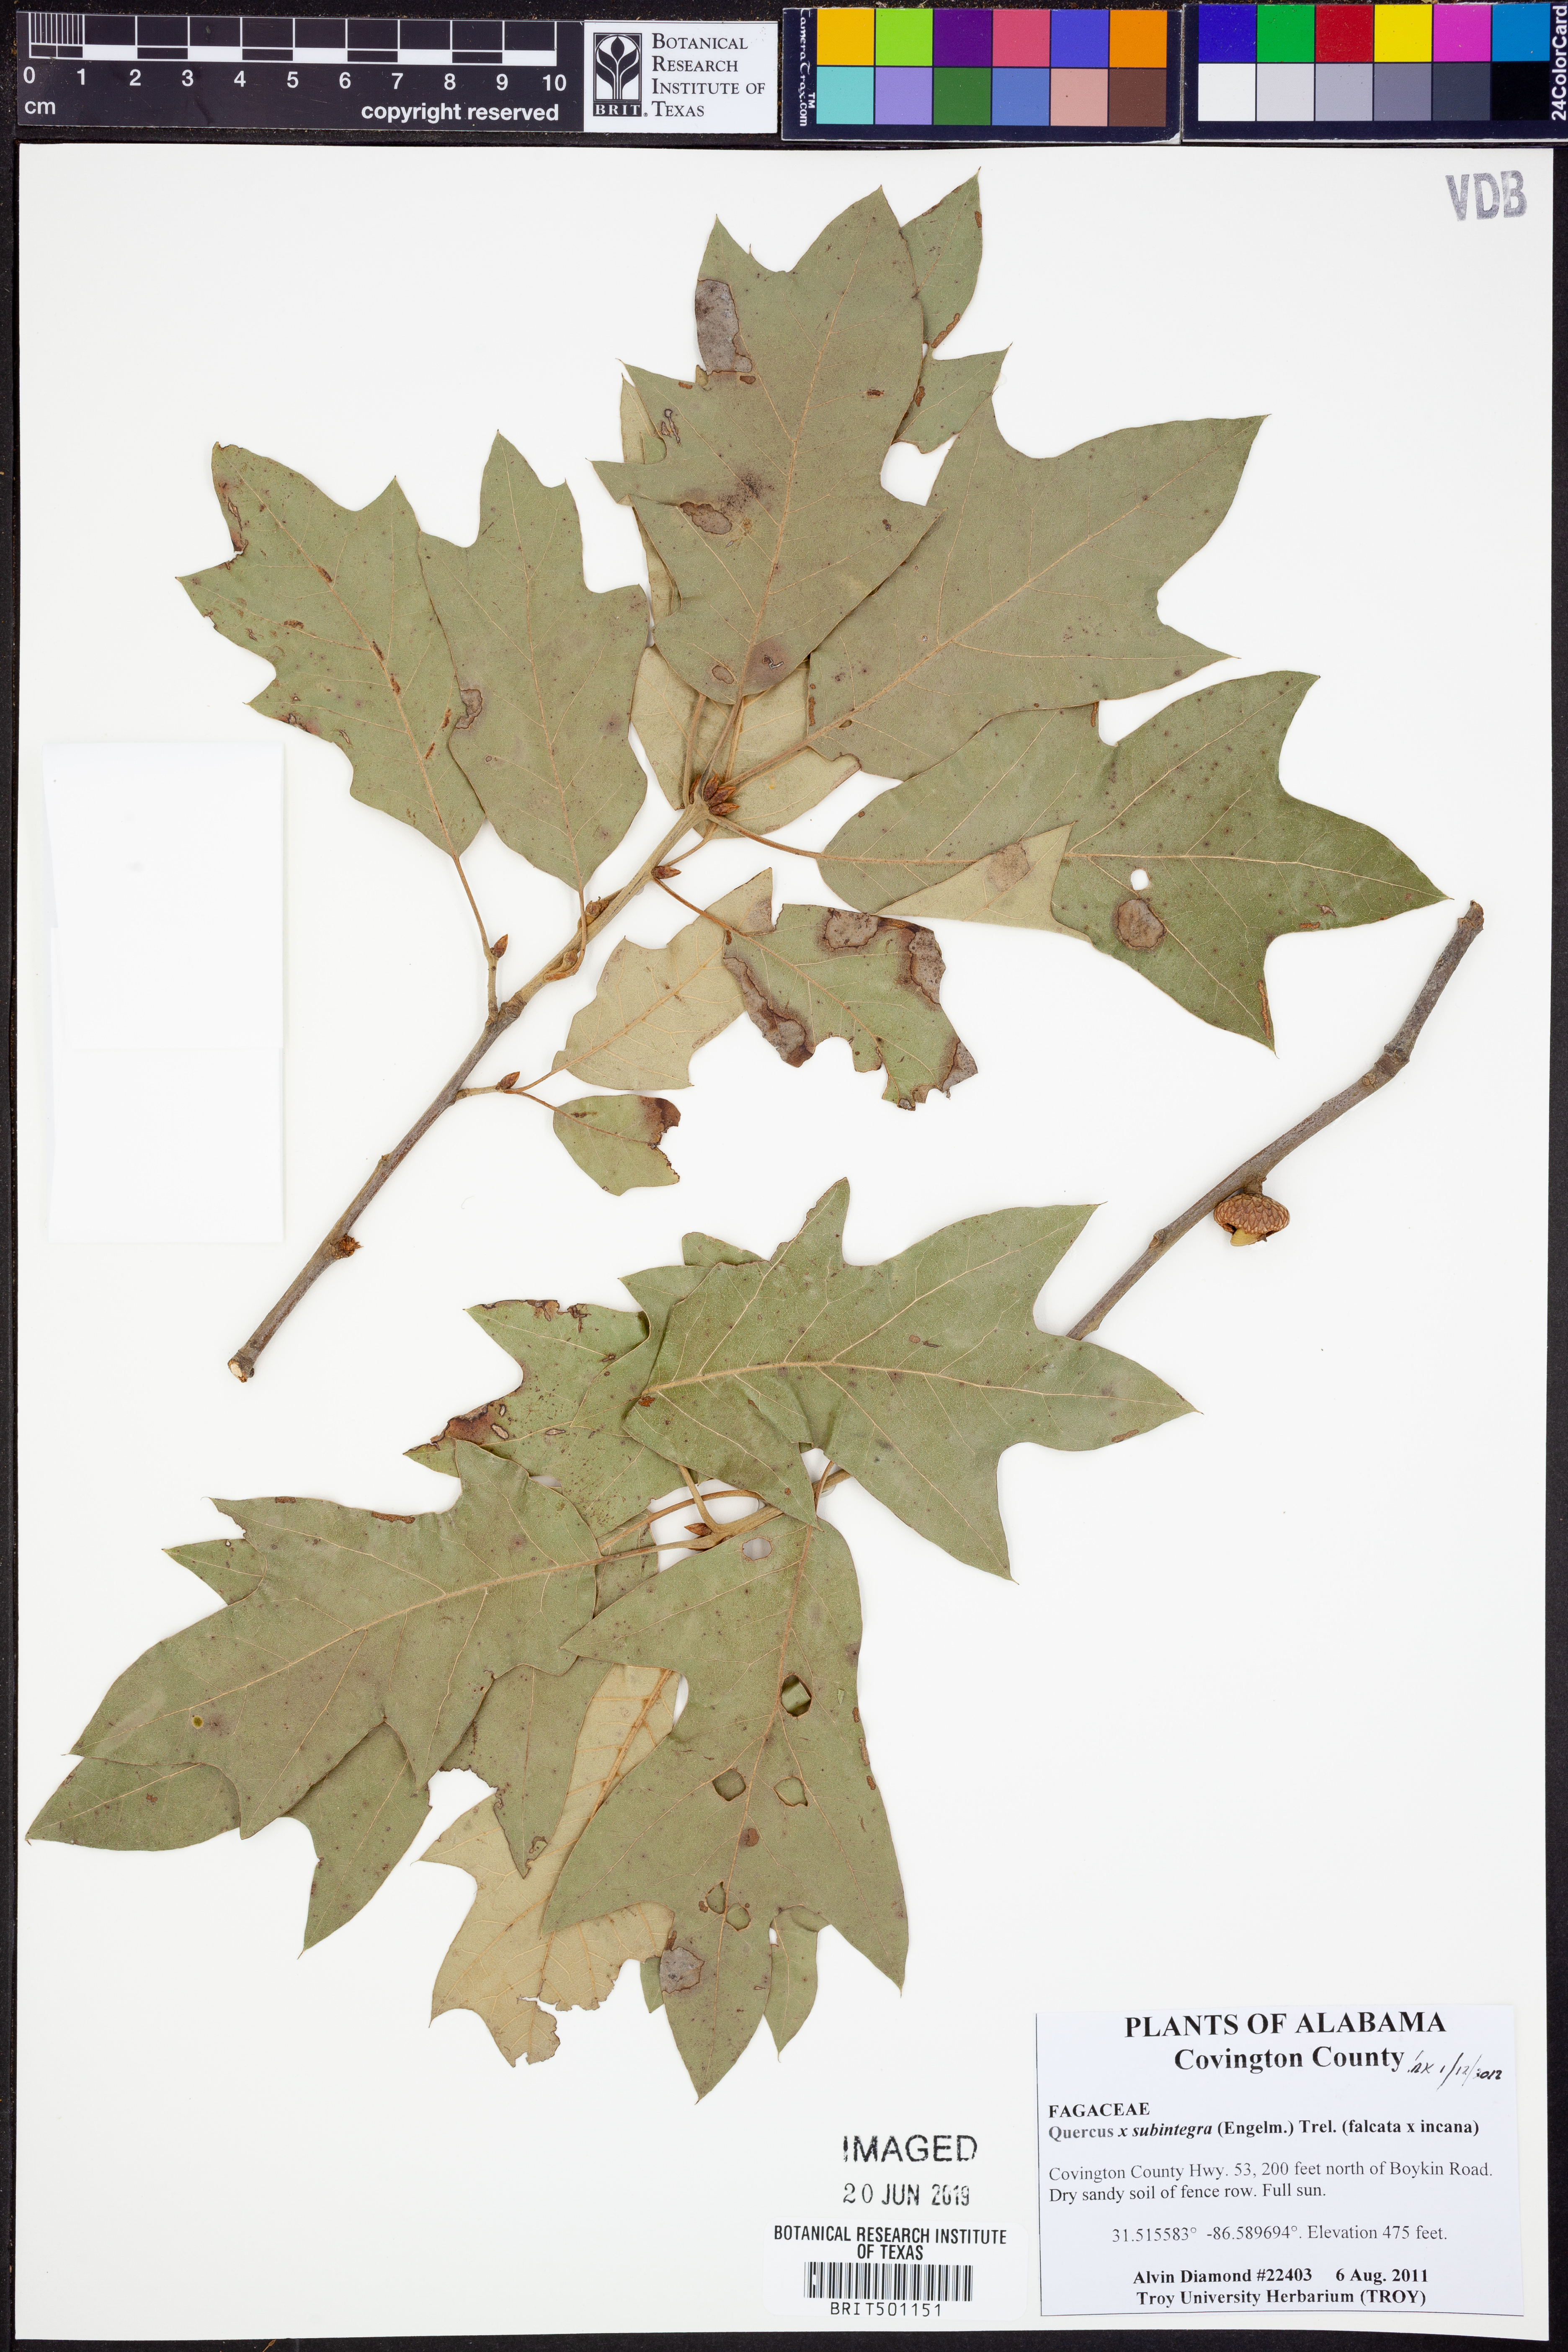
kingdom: Plantae
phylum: Tracheophyta
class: Magnoliopsida
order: Fagales
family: Fagaceae
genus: Quercus
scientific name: Quercus
